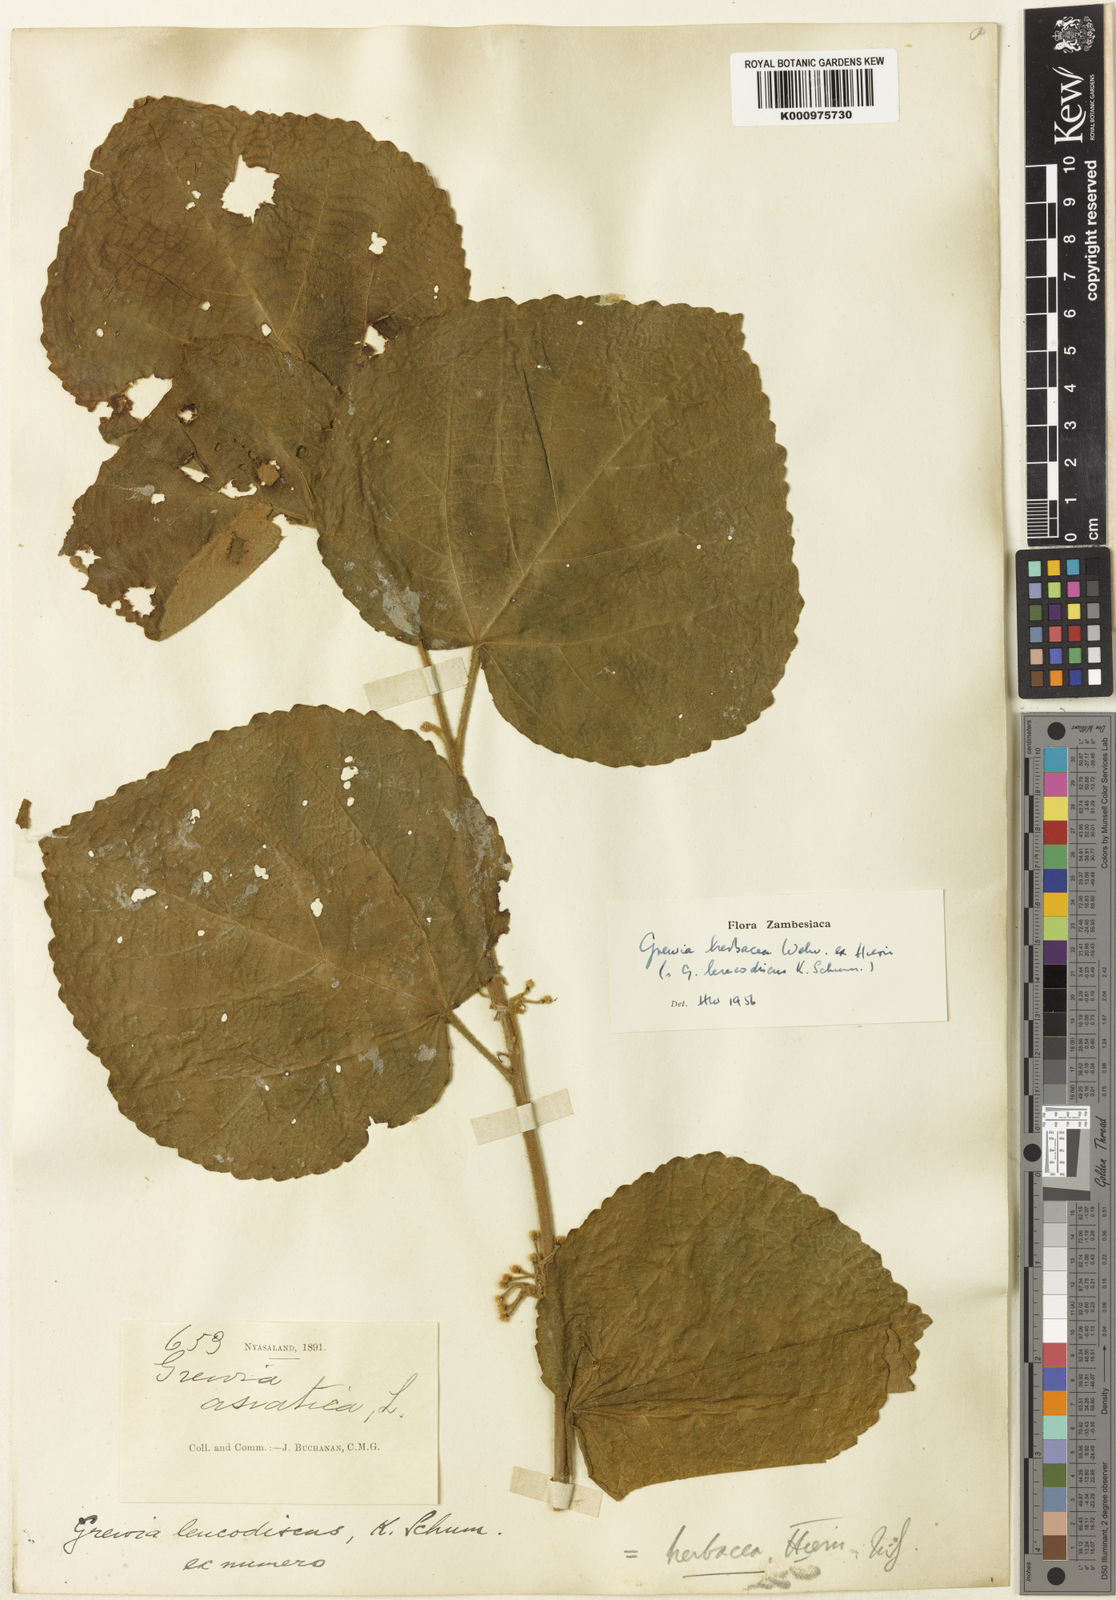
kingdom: Plantae
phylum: Tracheophyta
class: Magnoliopsida
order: Malvales
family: Malvaceae
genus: Grewia
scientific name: Grewia herbacea
